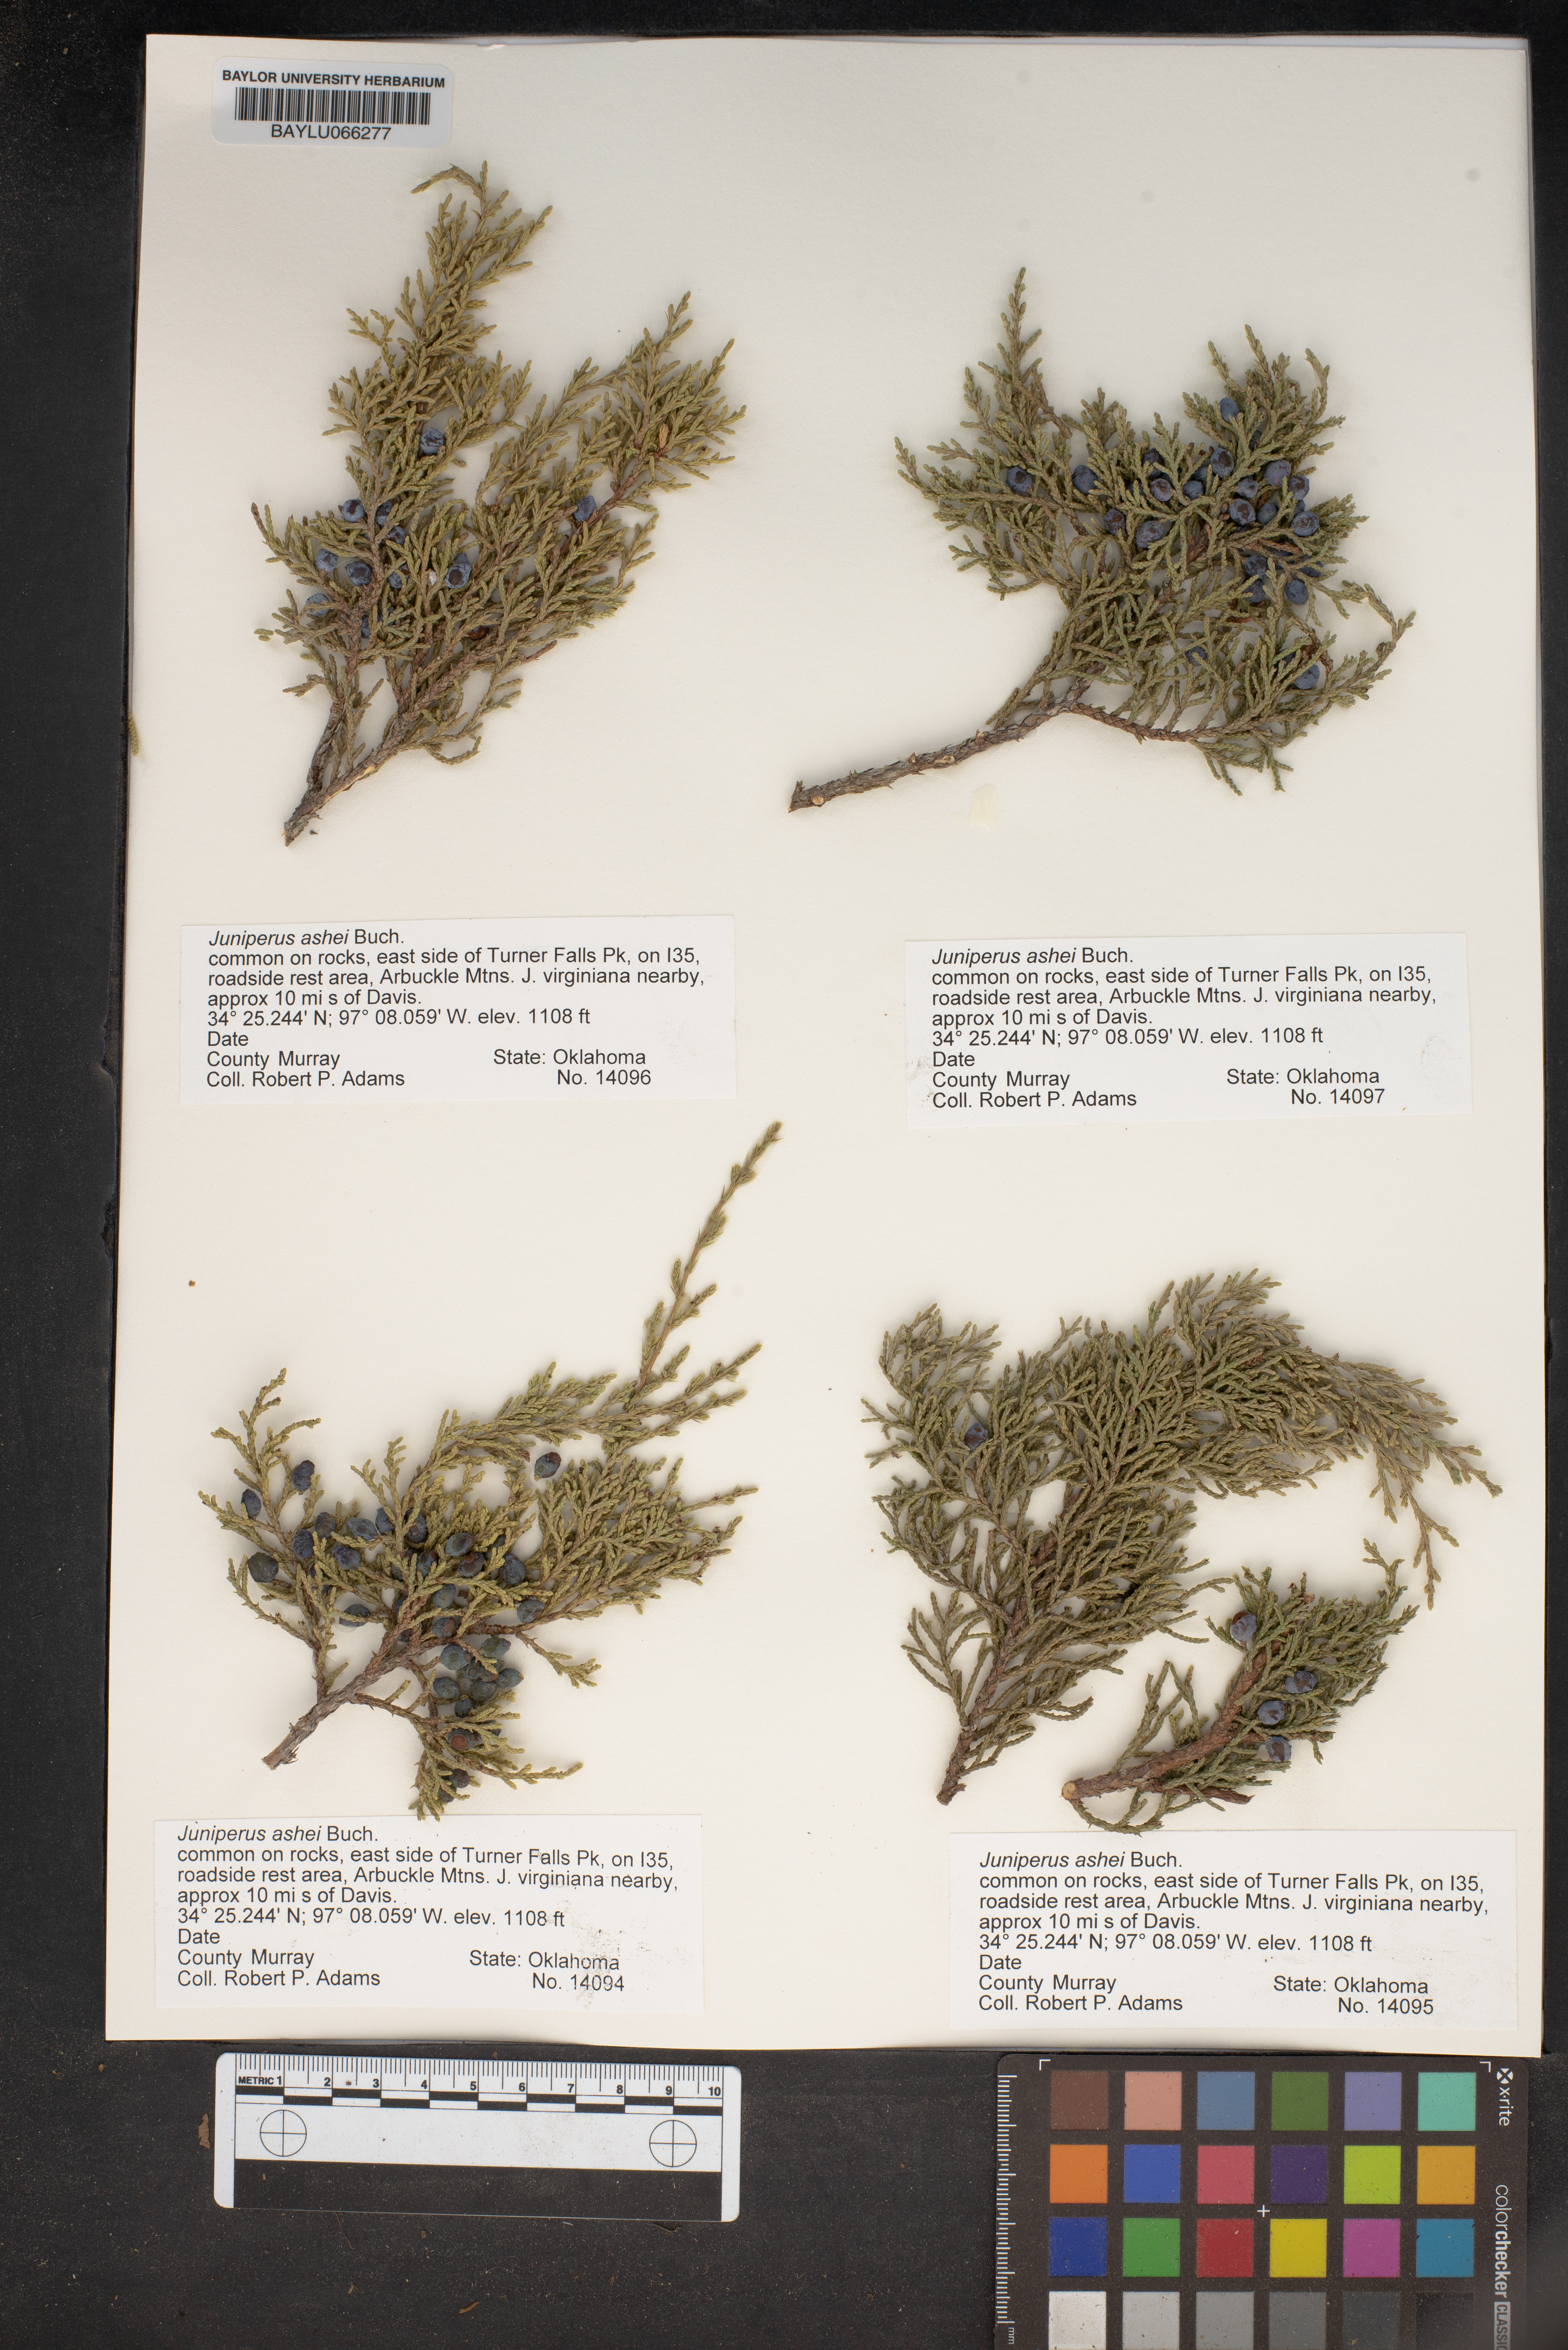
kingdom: Plantae
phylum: Tracheophyta
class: Pinopsida
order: Pinales
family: Cupressaceae
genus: Juniperus
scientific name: Juniperus ashei
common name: Mexican juniper
